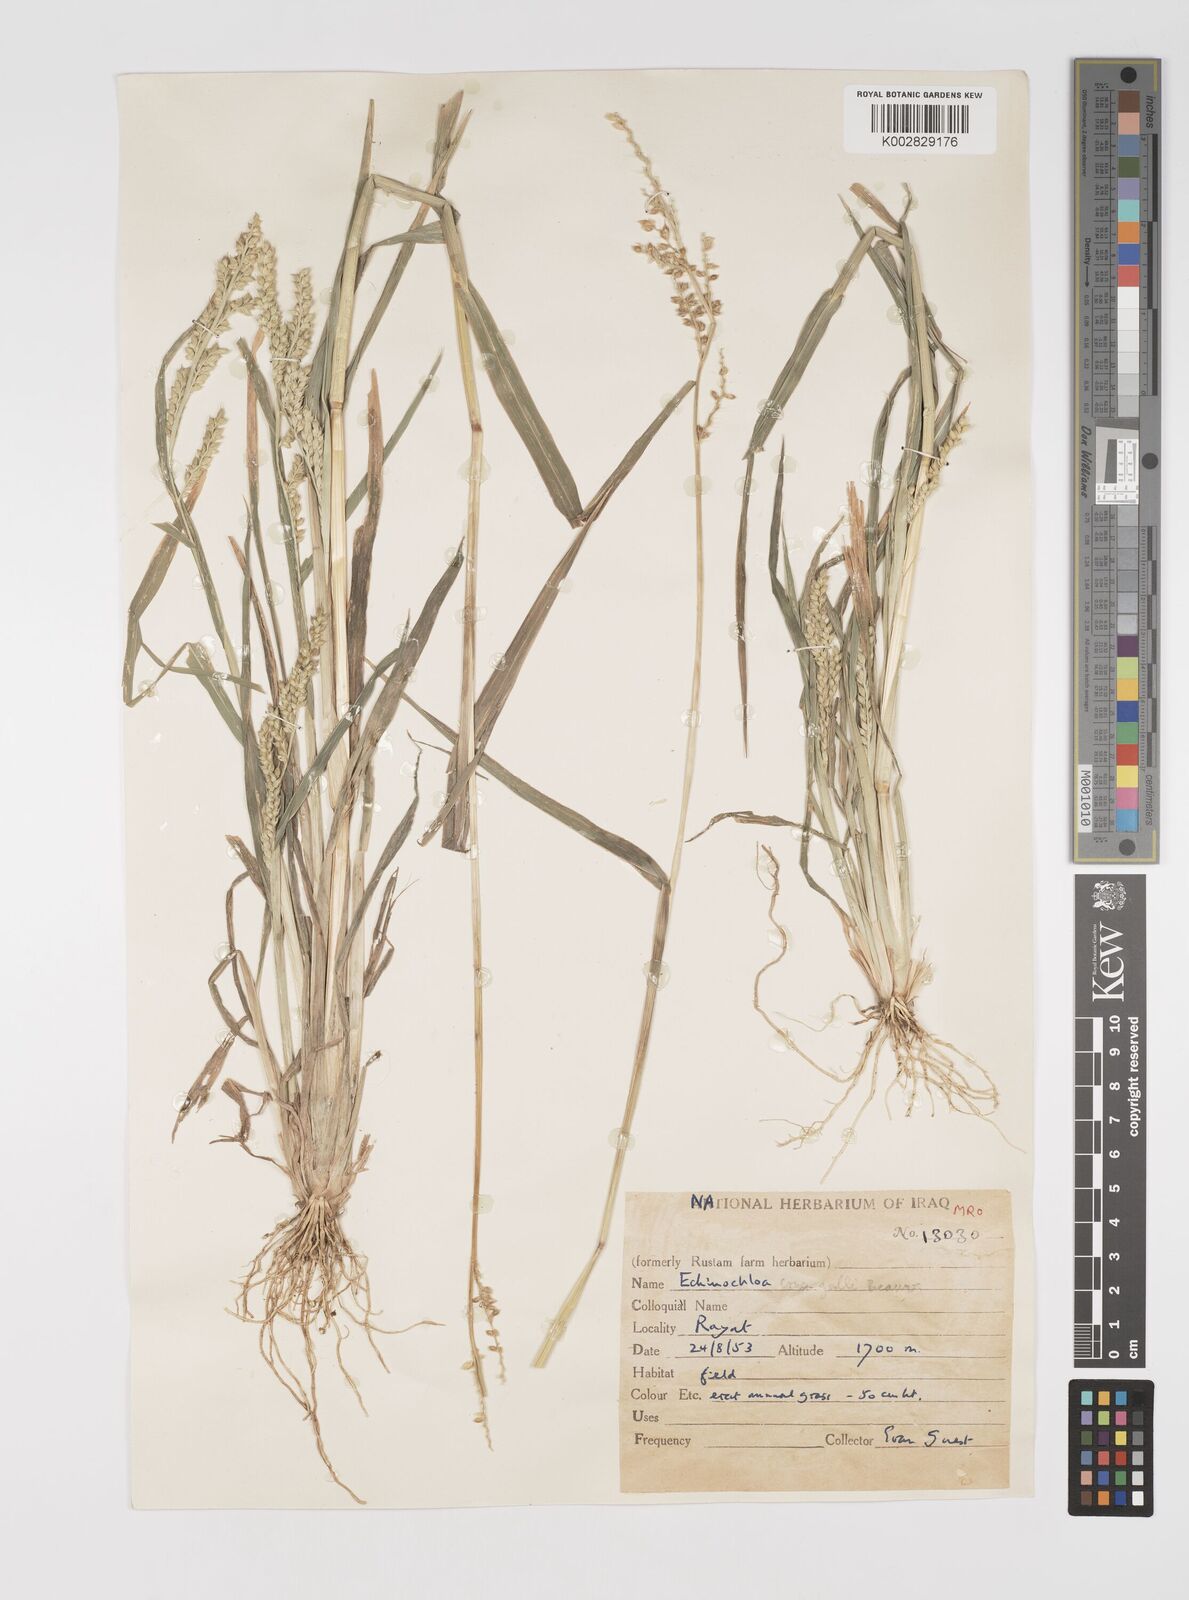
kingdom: Plantae
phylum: Tracheophyta
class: Liliopsida
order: Poales
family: Poaceae
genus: Echinochloa
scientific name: Echinochloa crus-galli
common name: Cockspur
